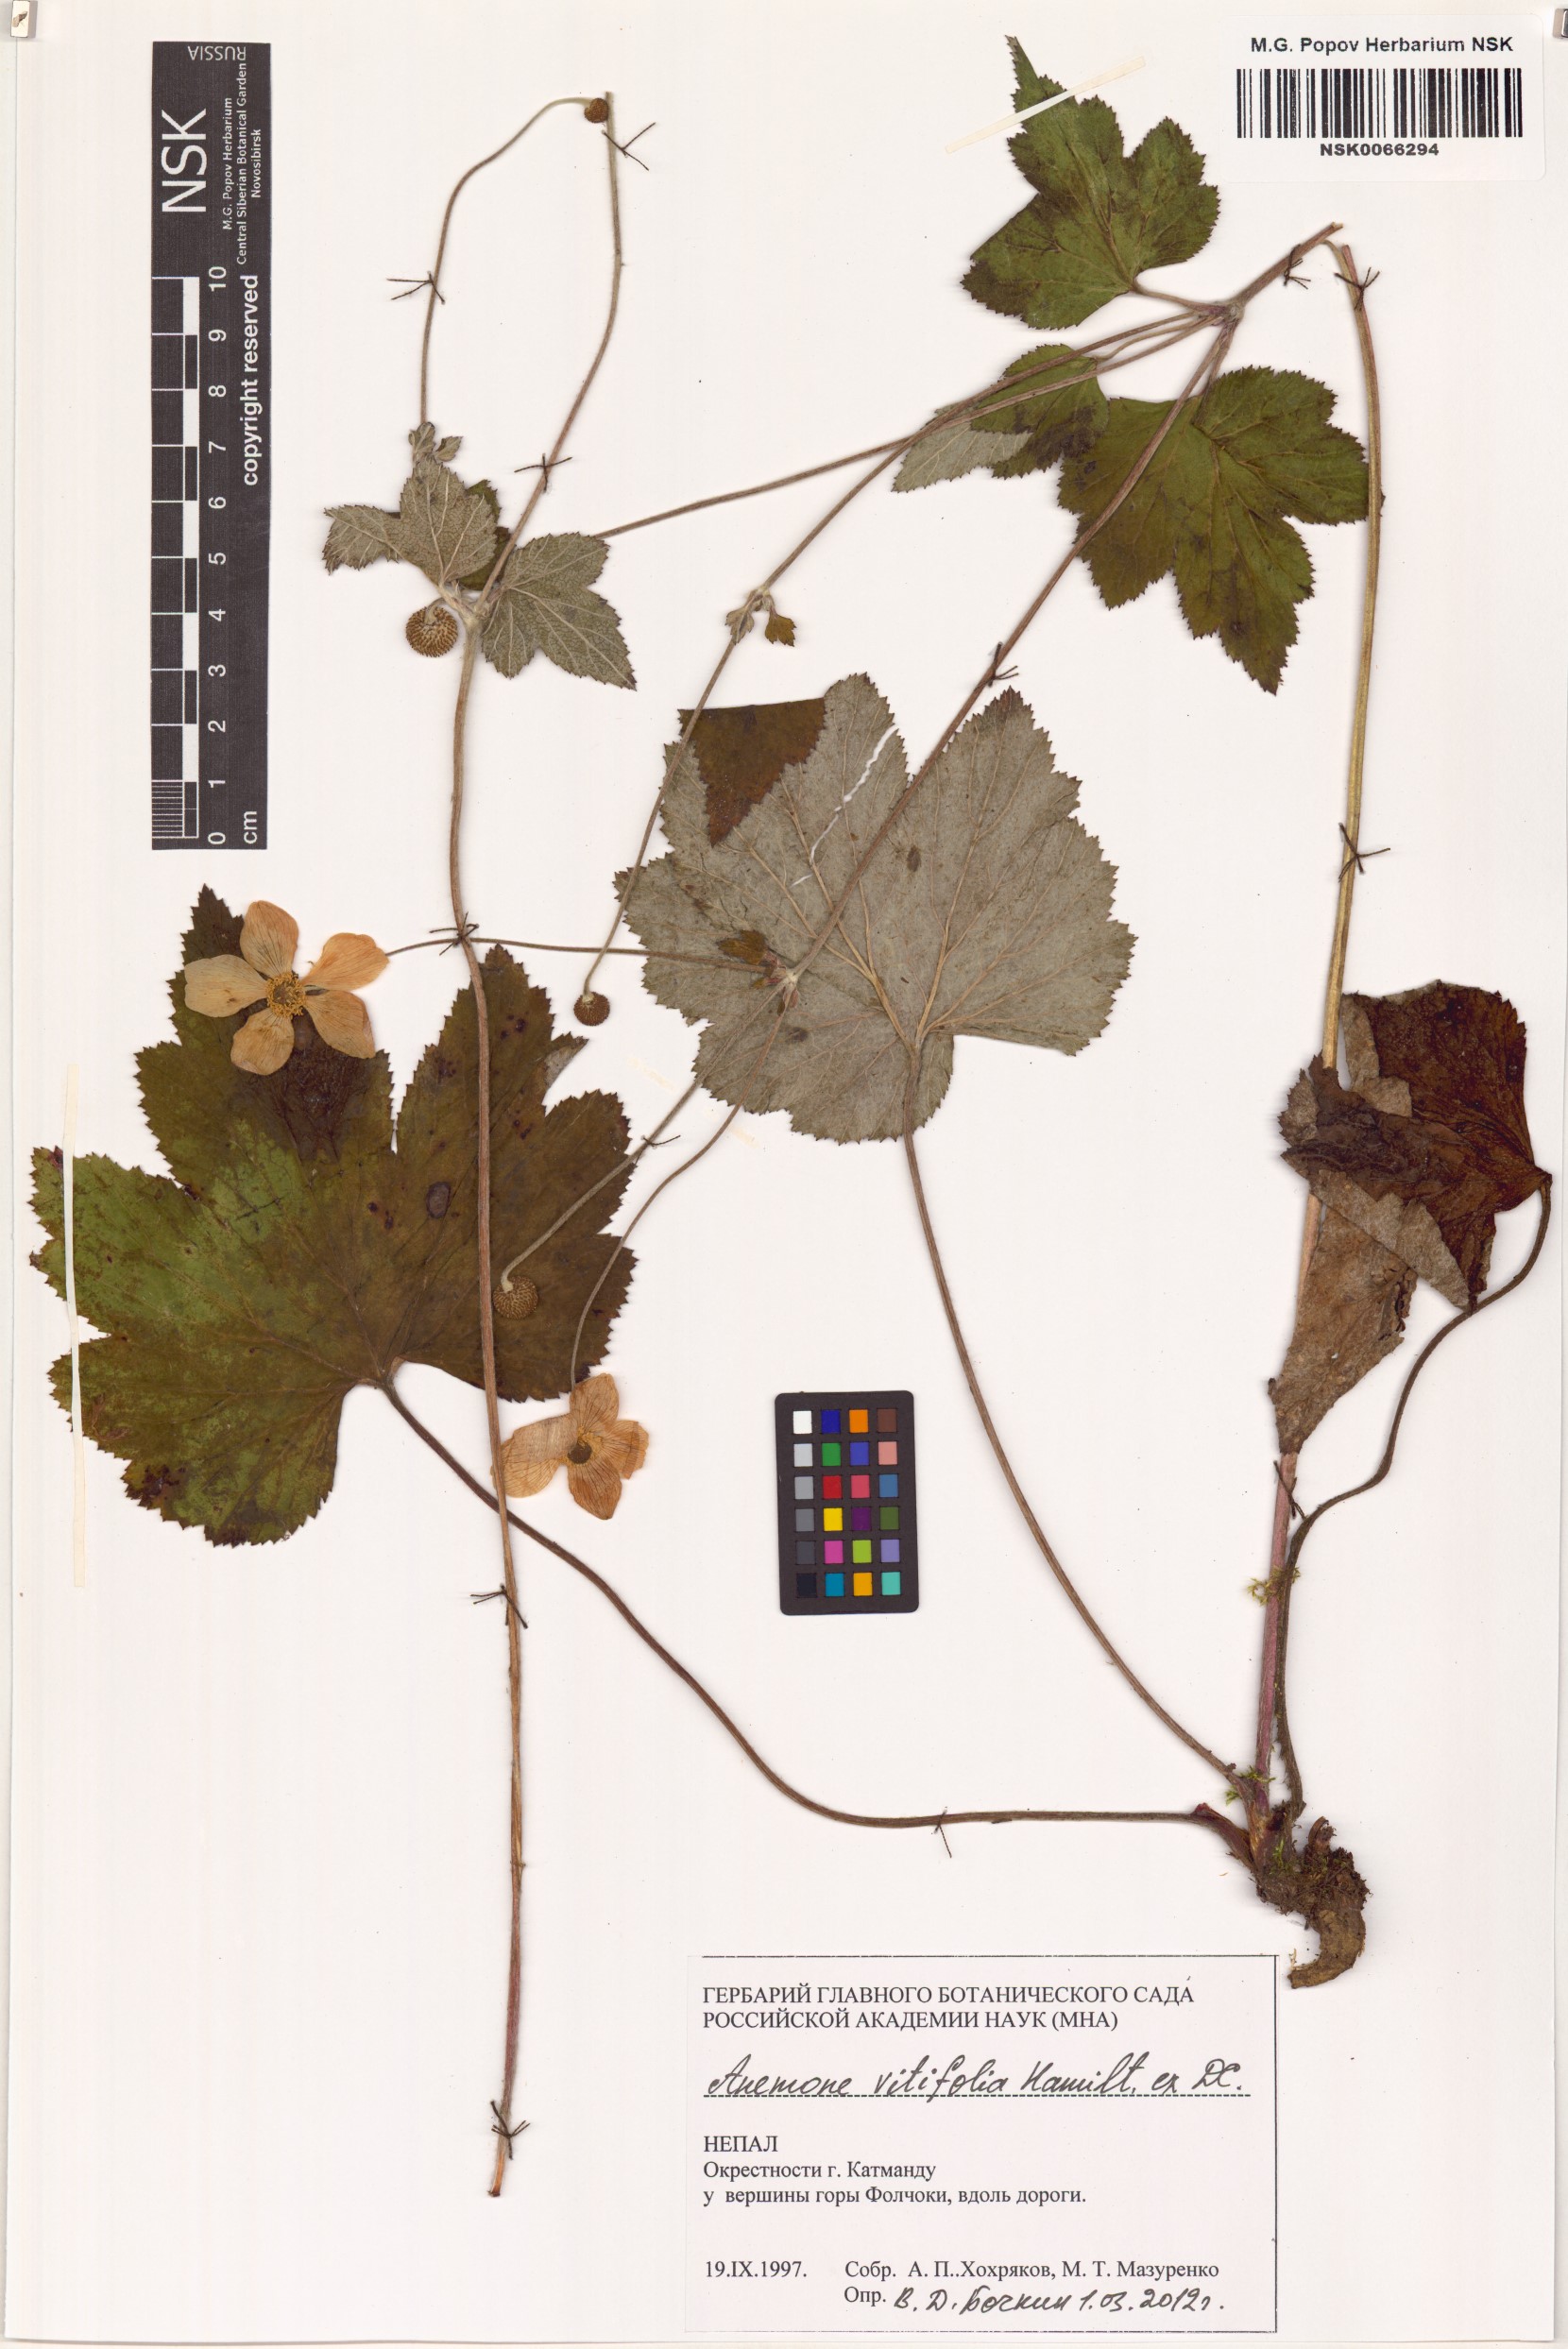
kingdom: Plantae
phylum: Tracheophyta
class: Magnoliopsida
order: Ranunculales
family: Ranunculaceae
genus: Eriocapitella
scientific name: Eriocapitella vitifolia
